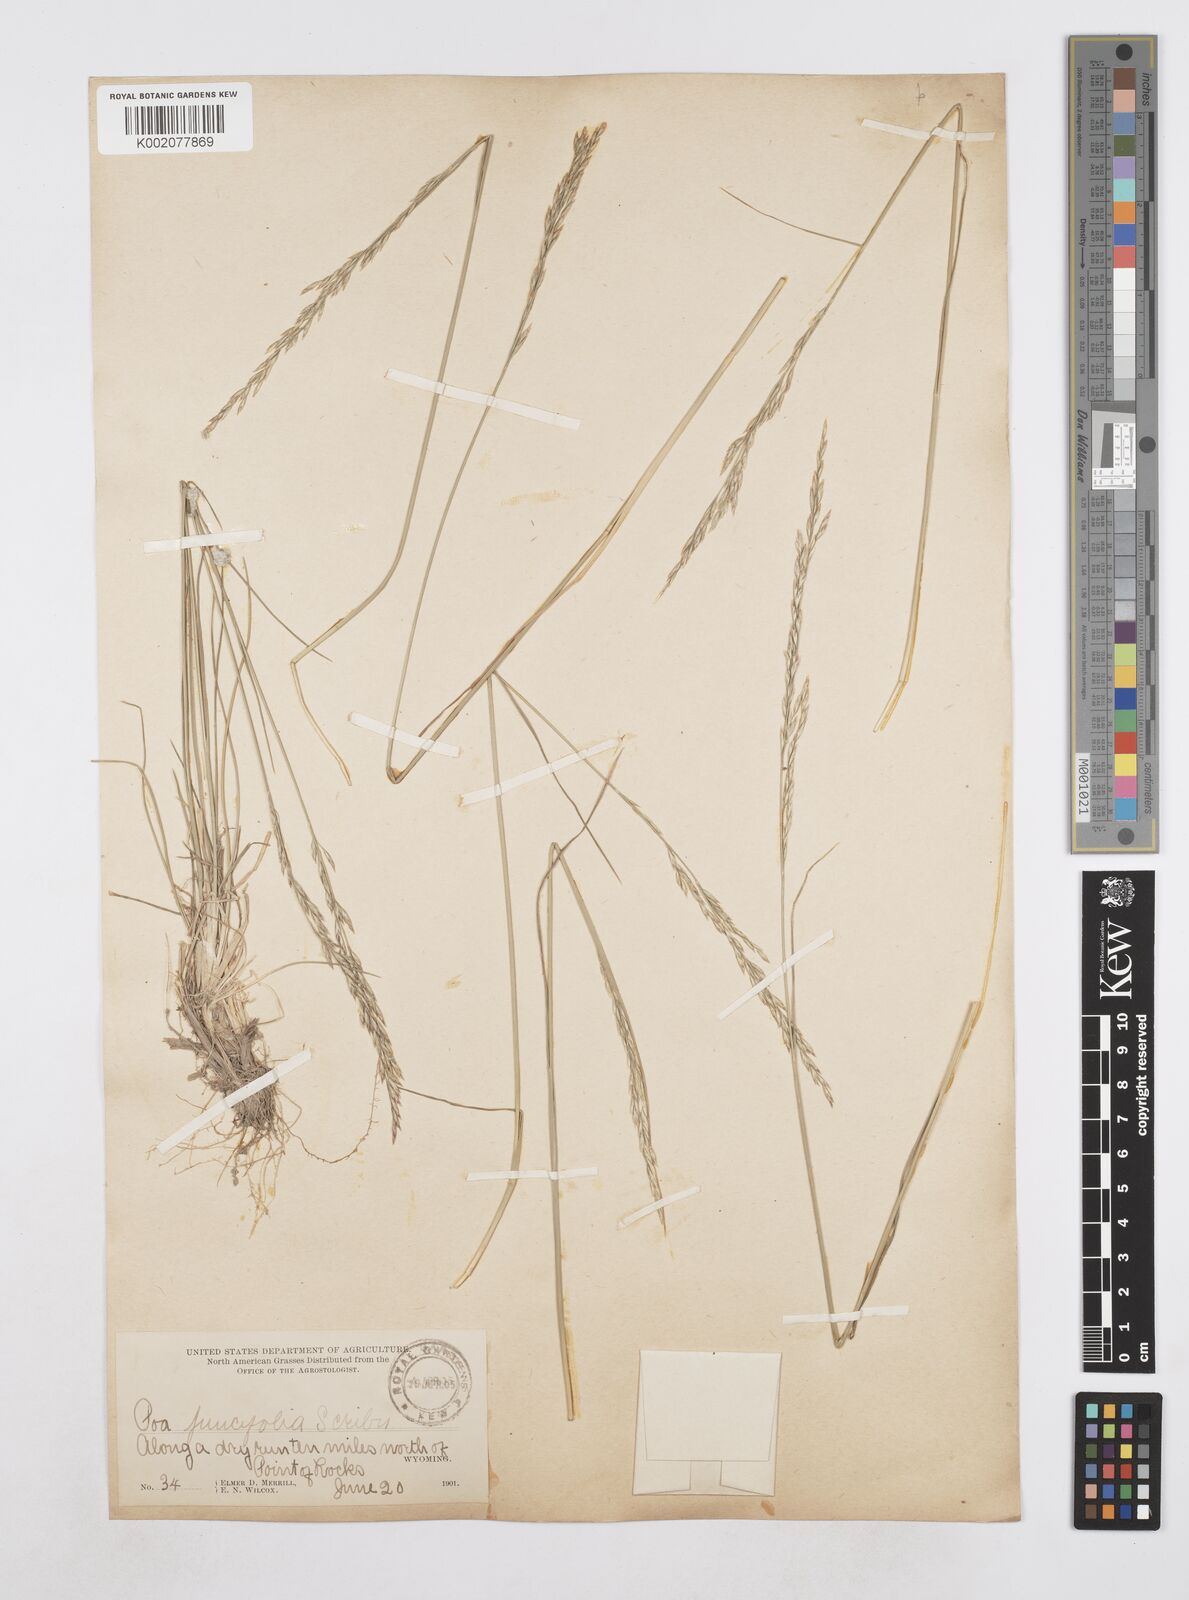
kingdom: Plantae
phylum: Tracheophyta
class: Liliopsida
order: Poales
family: Poaceae
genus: Poa
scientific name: Poa secunda
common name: Sandberg bluegrass
